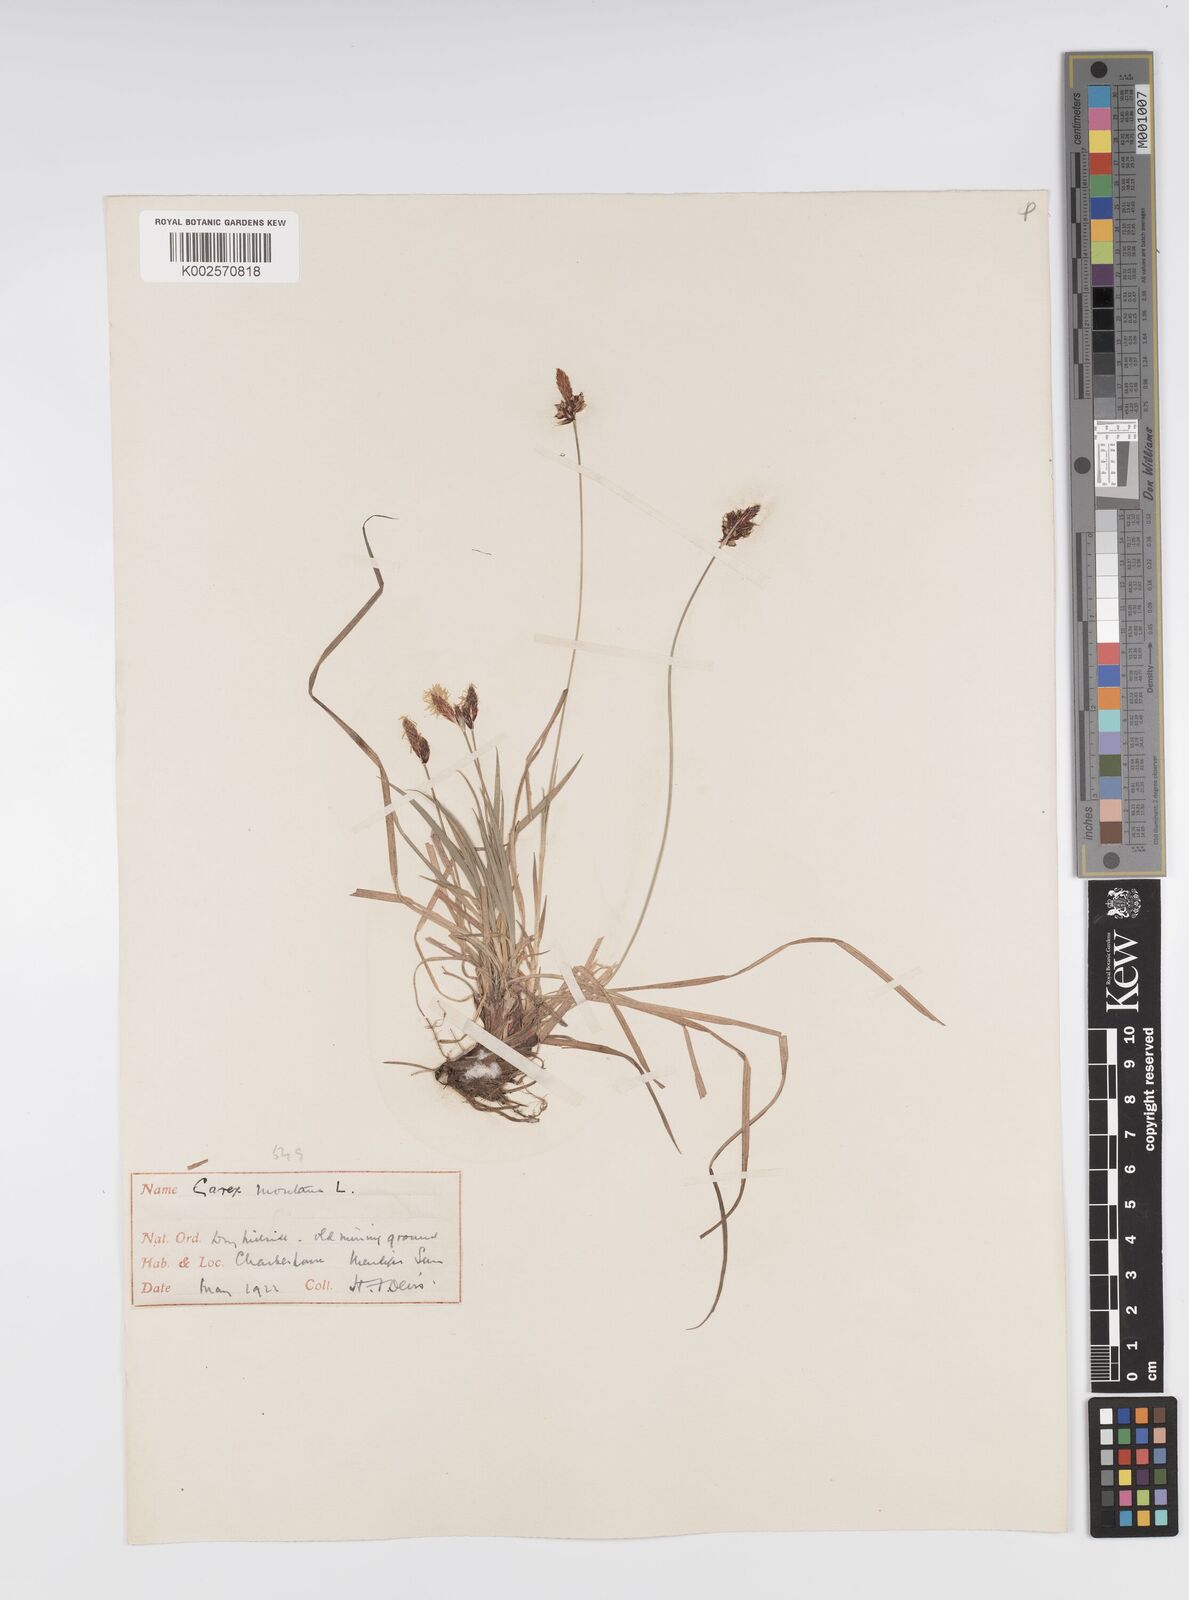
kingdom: Plantae
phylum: Tracheophyta
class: Liliopsida
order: Poales
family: Cyperaceae
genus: Carex
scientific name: Carex montana
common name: Soft-leaved sedge
